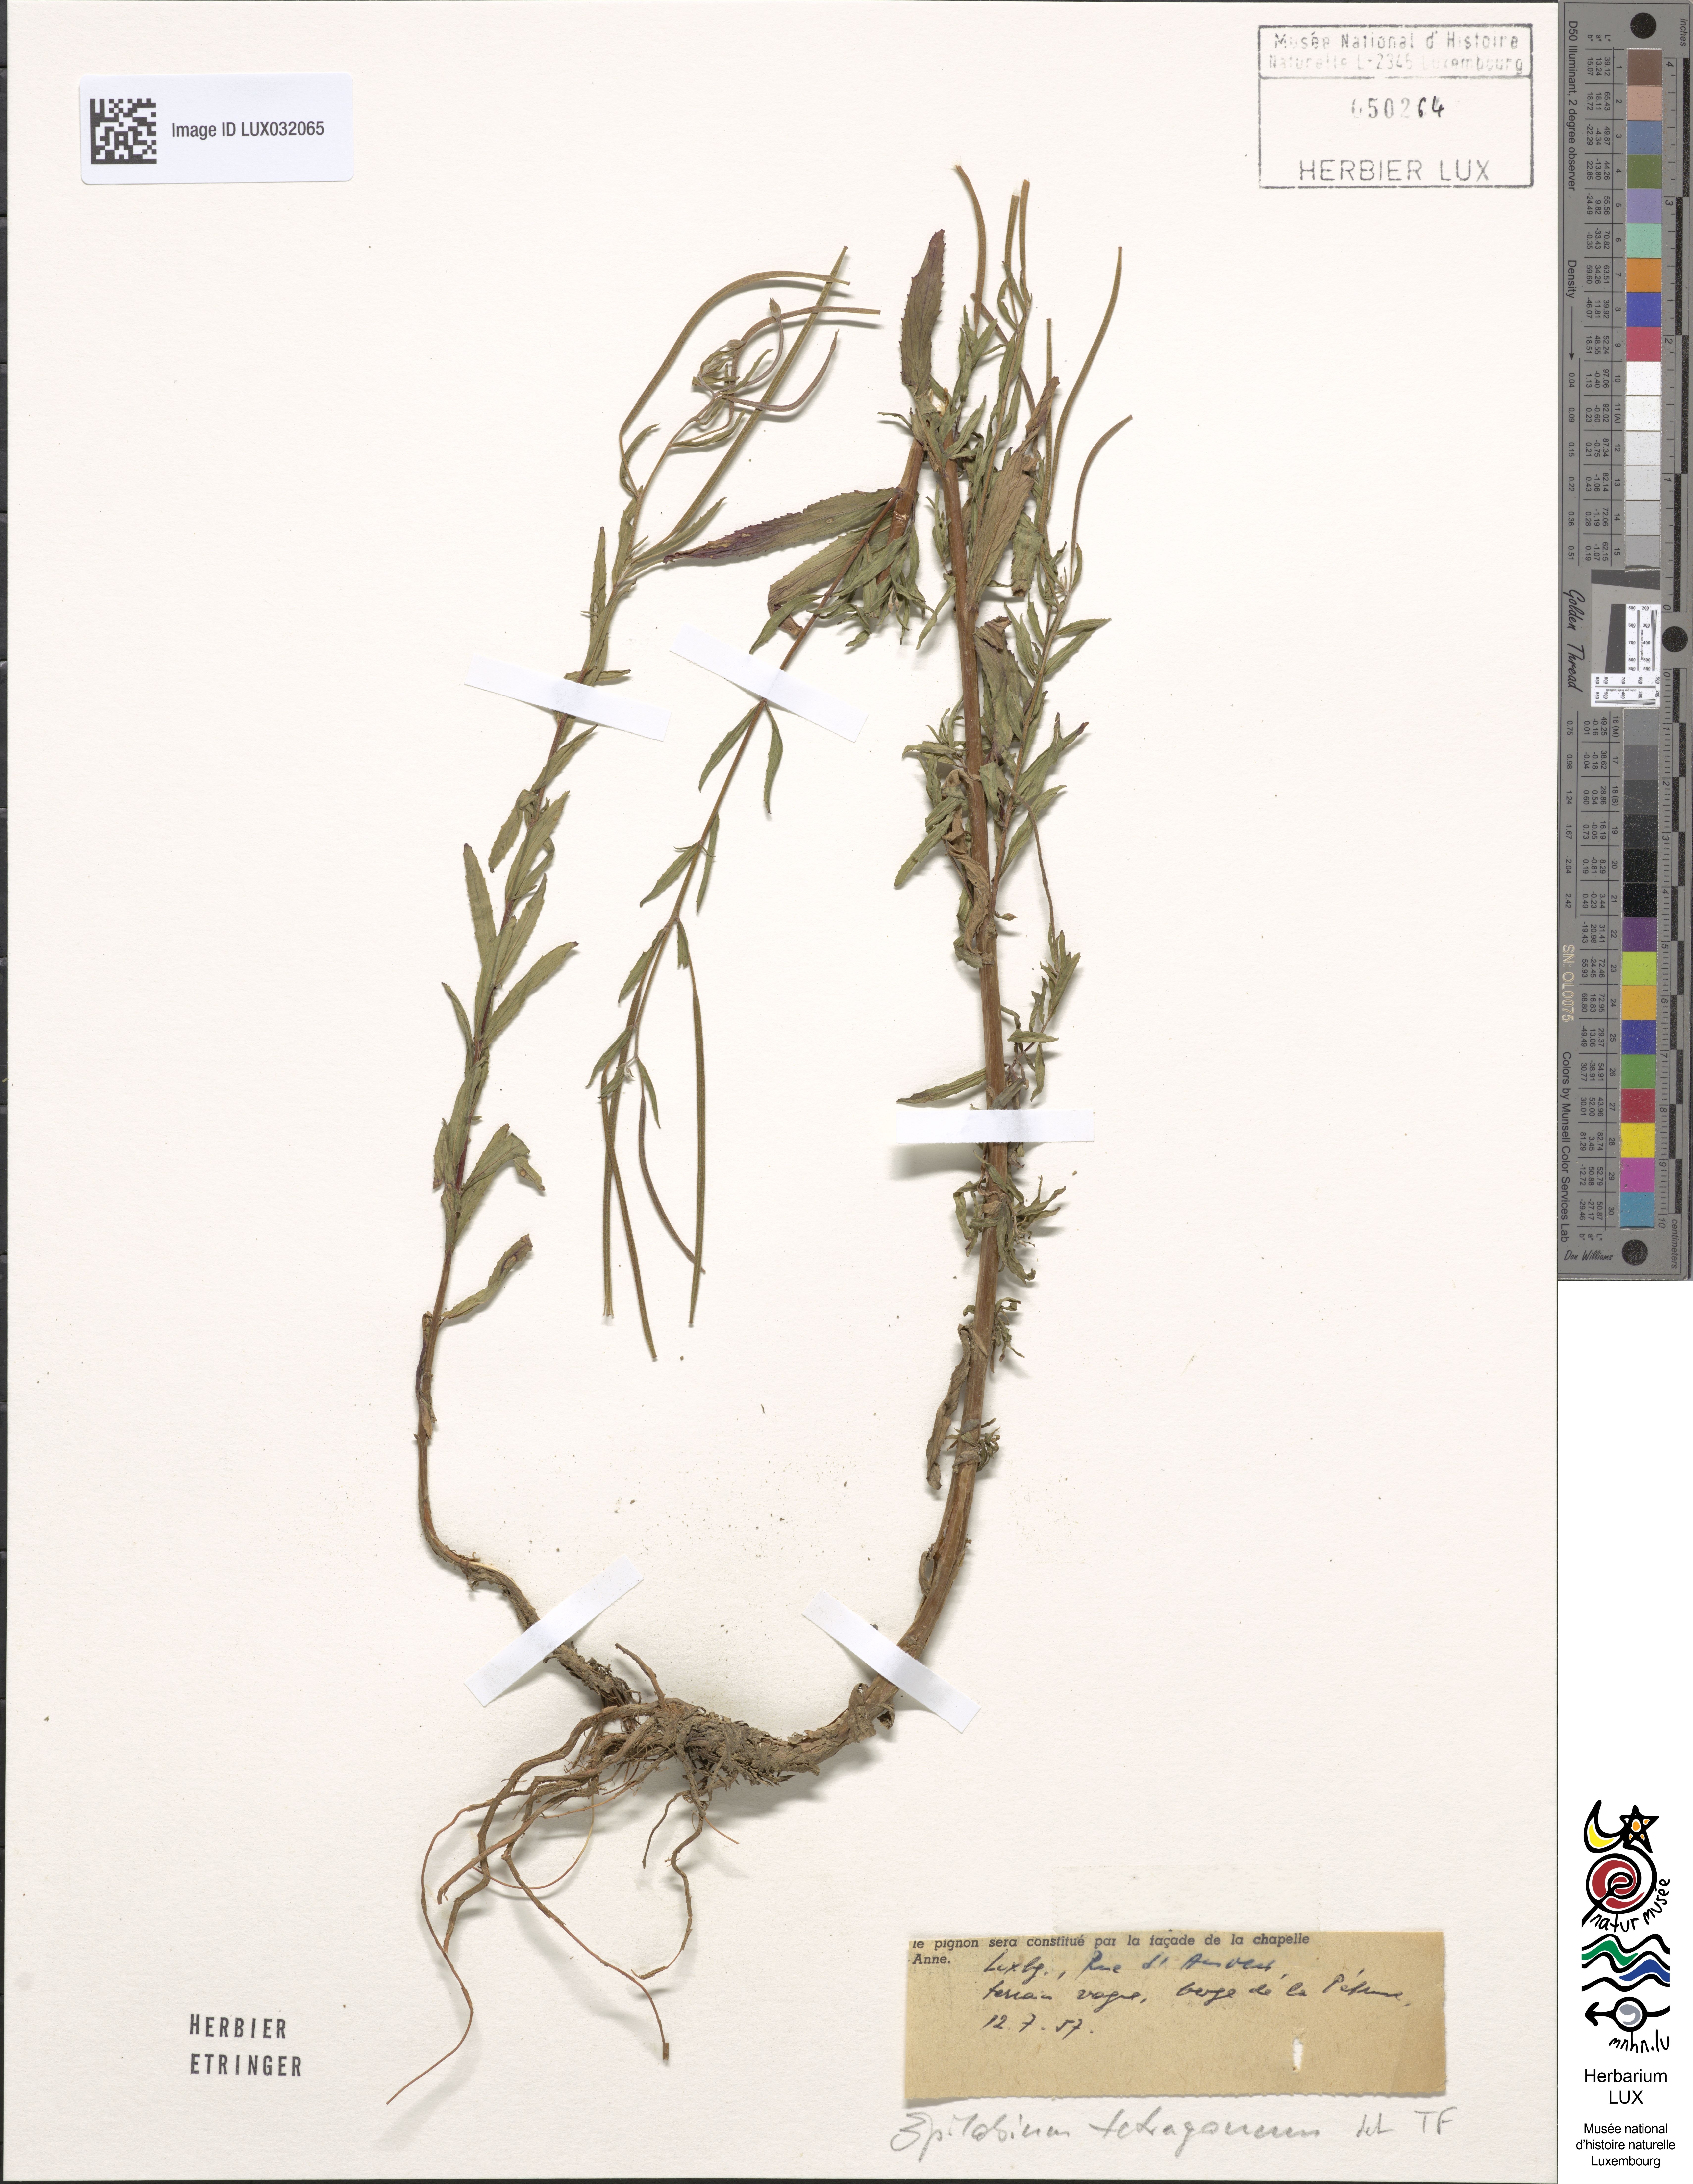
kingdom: Plantae
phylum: Tracheophyta
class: Magnoliopsida
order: Myrtales
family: Onagraceae
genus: Epilobium
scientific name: Epilobium tetragonum
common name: Square-stemmed willowherb
